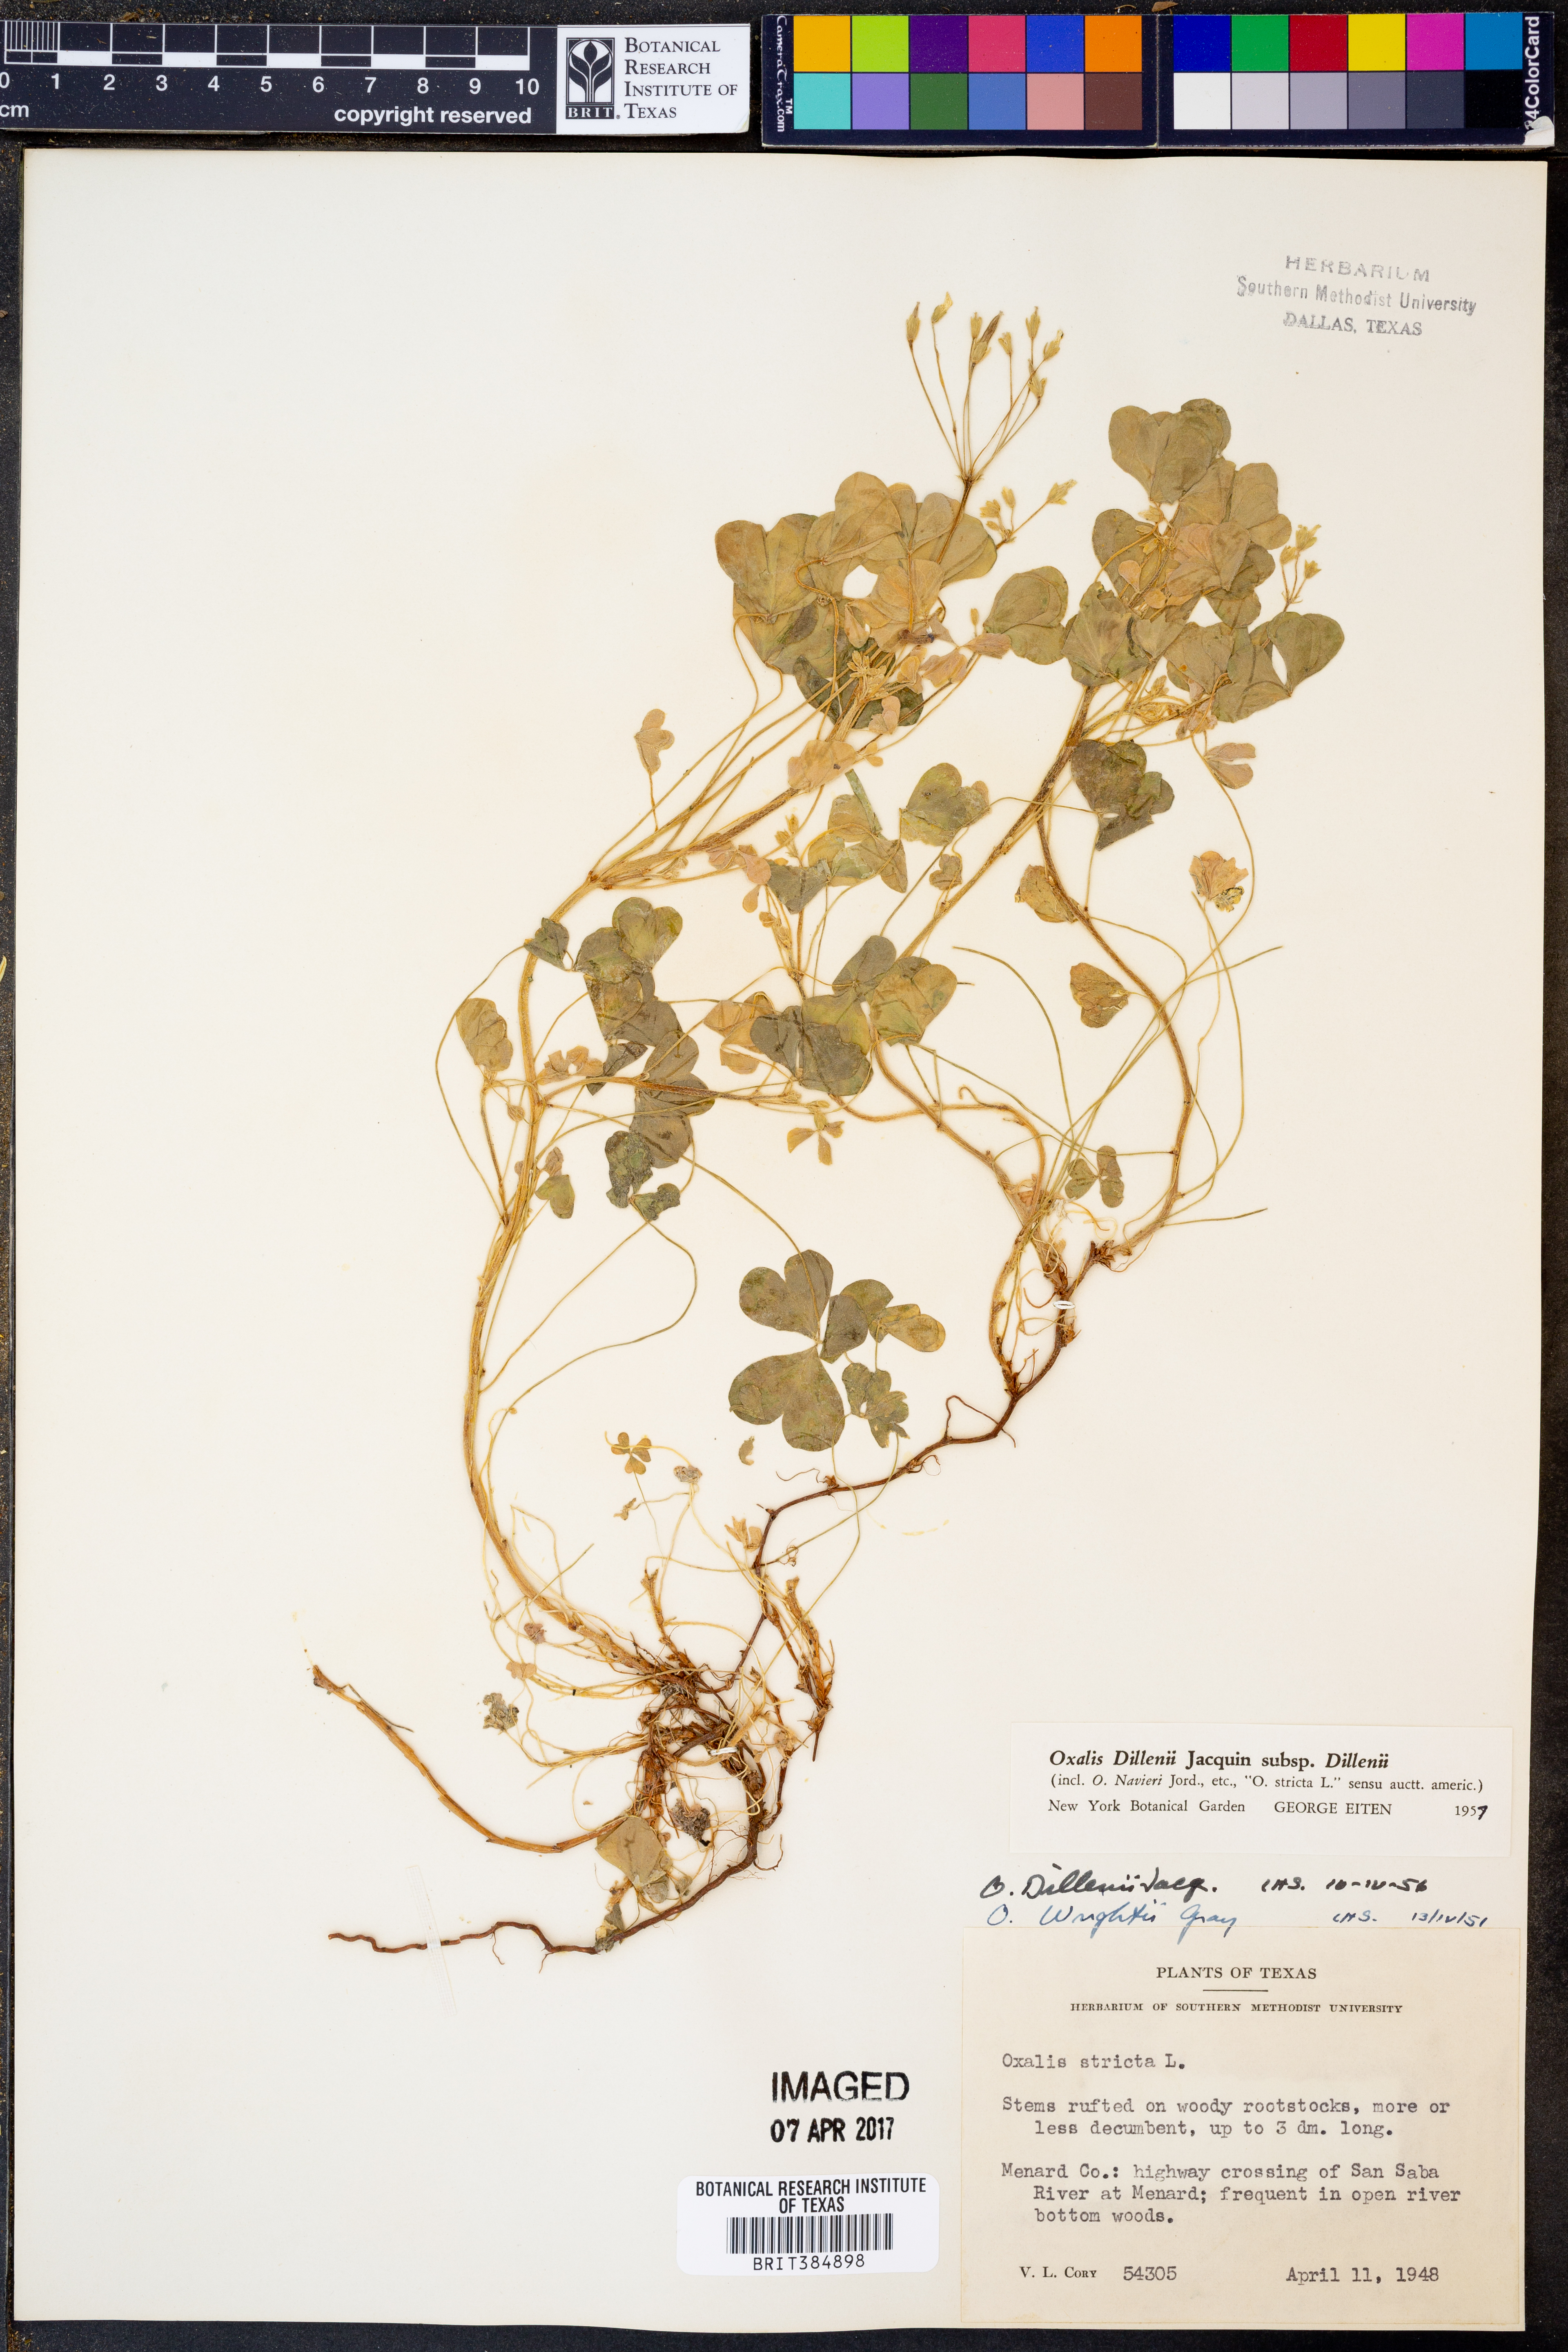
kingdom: Plantae
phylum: Tracheophyta
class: Magnoliopsida
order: Oxalidales
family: Oxalidaceae
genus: Oxalis
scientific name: Oxalis dillenii
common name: Sussex yellow-sorrel
